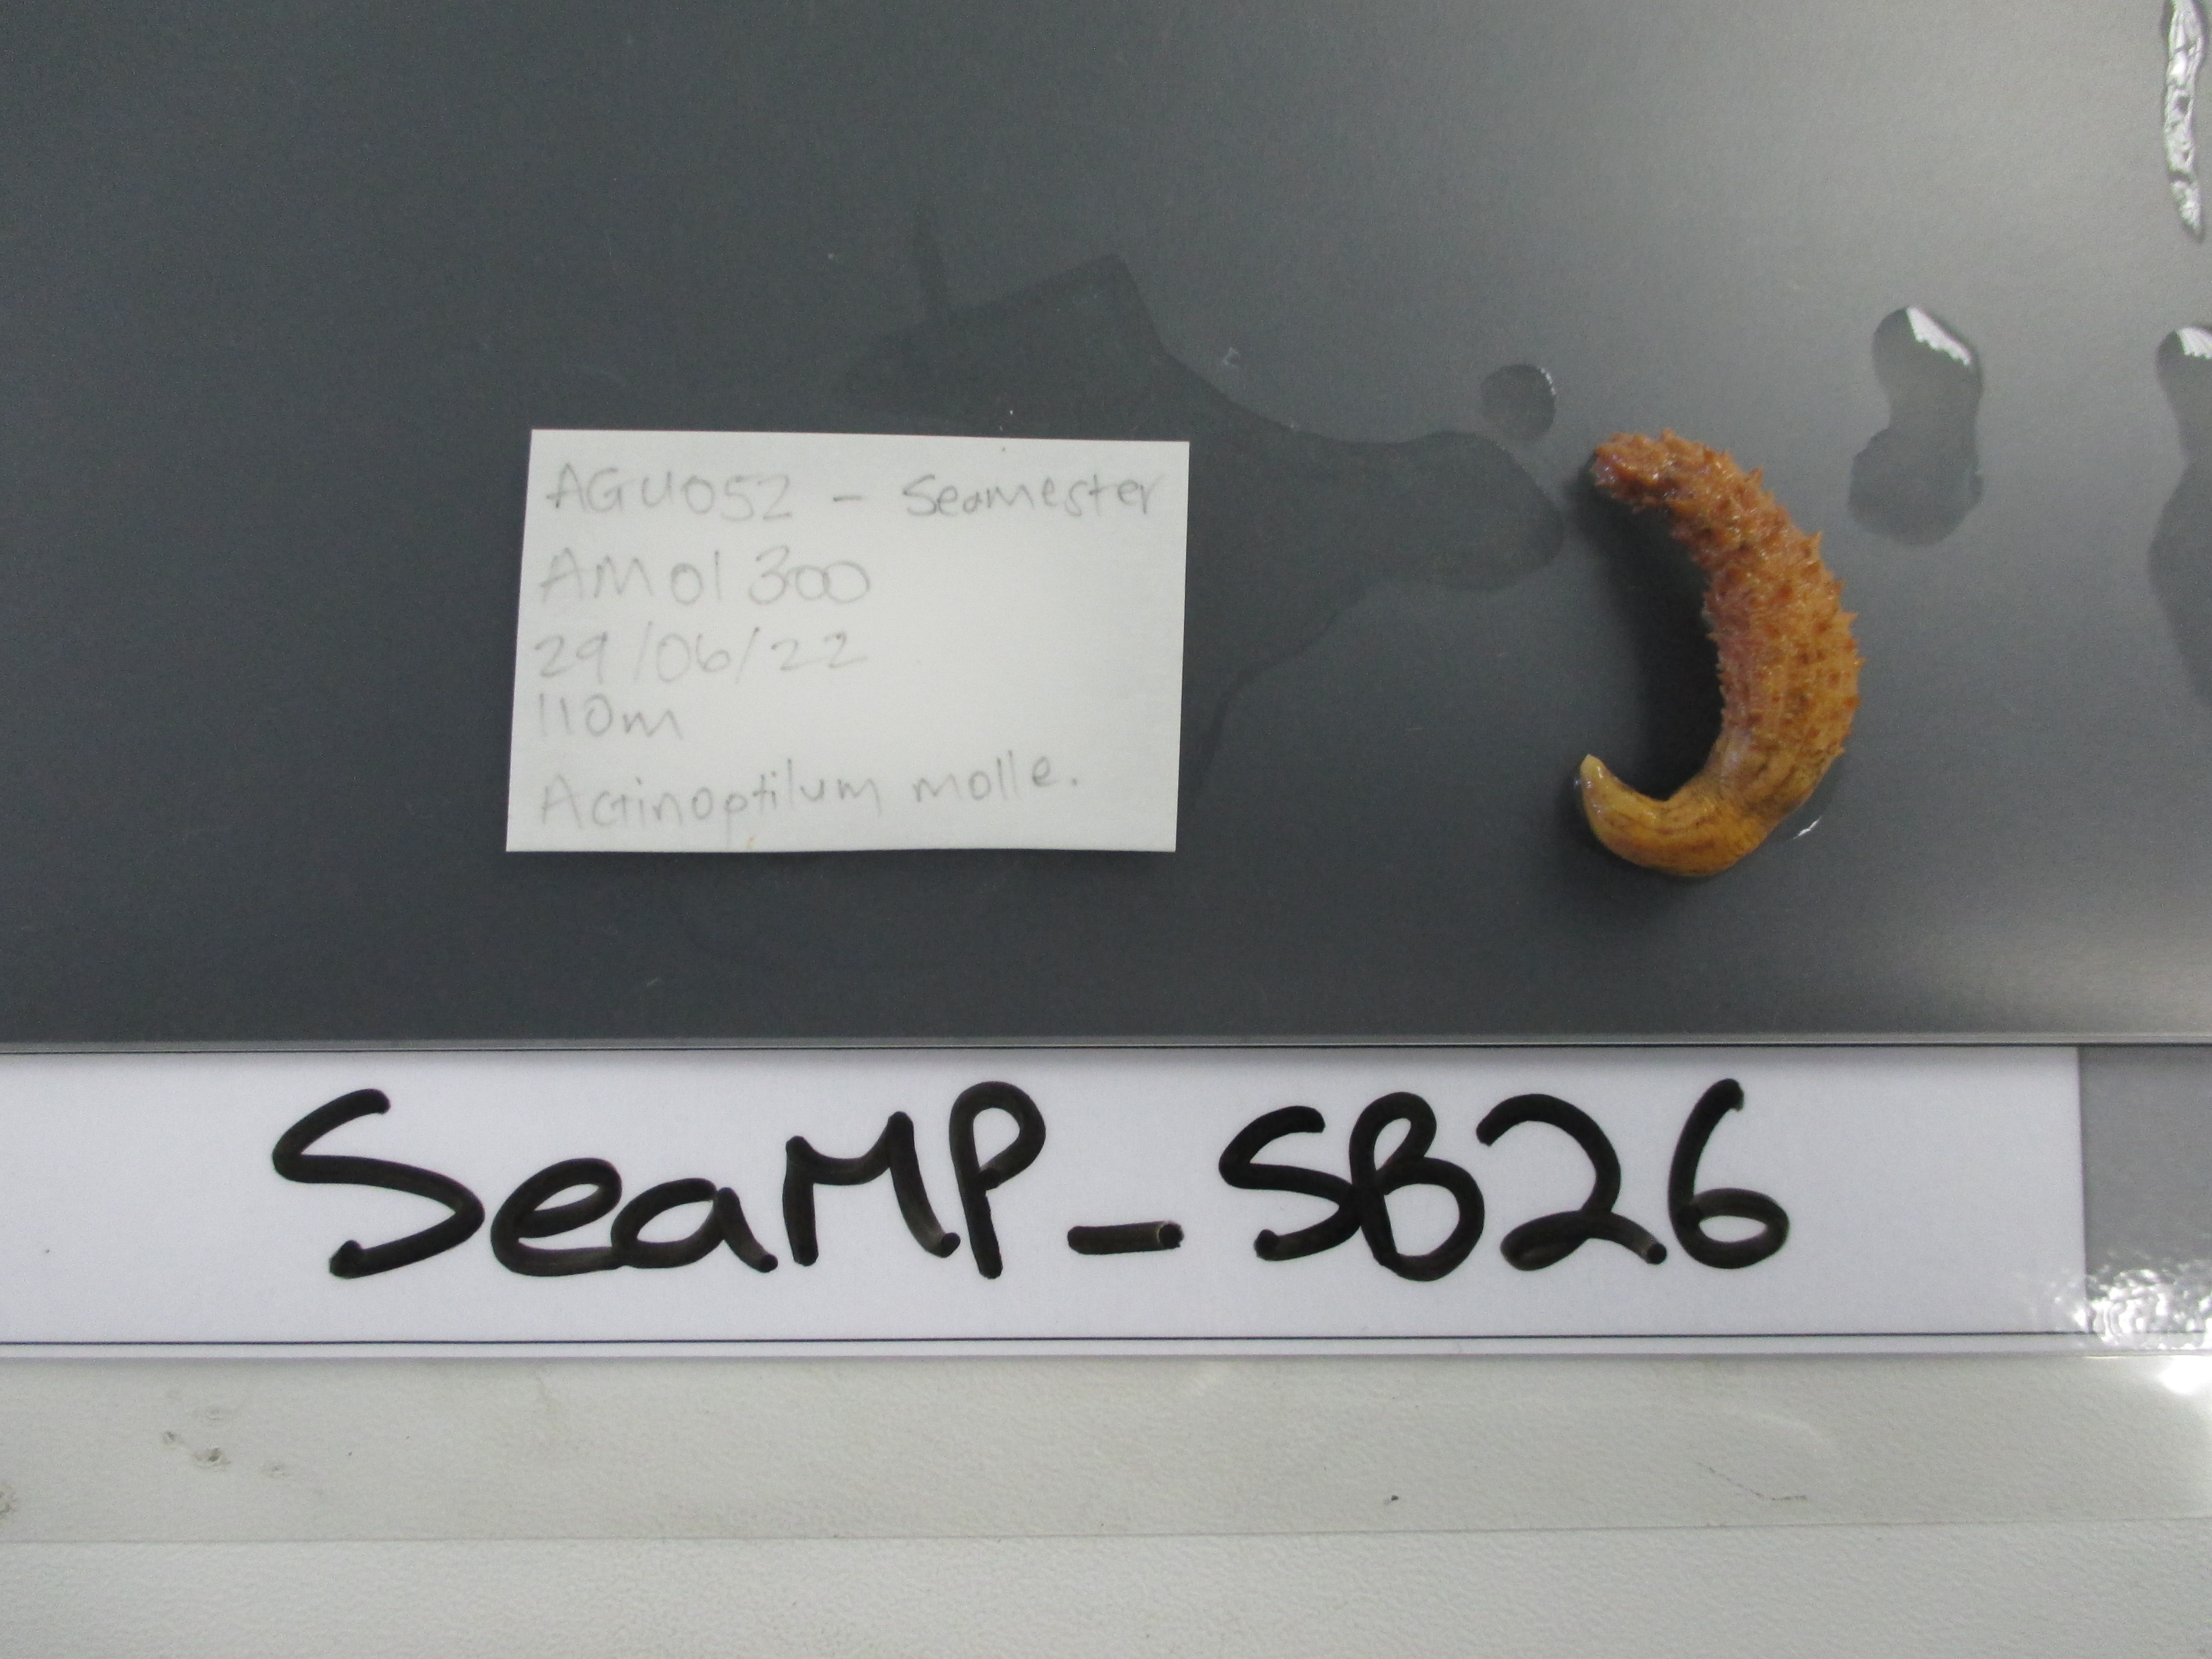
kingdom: Animalia
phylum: Cnidaria
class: Anthozoa
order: Scleralcyonacea
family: Echinoptilidae
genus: Actinoptilum
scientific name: Actinoptilum molle
